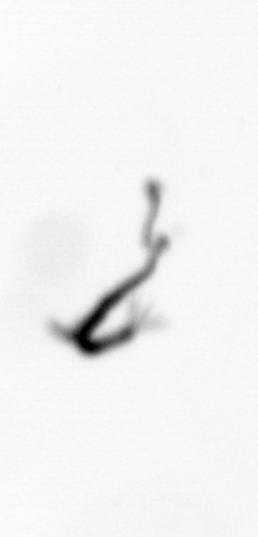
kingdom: Animalia
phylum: Cnidaria
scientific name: Cnidaria
